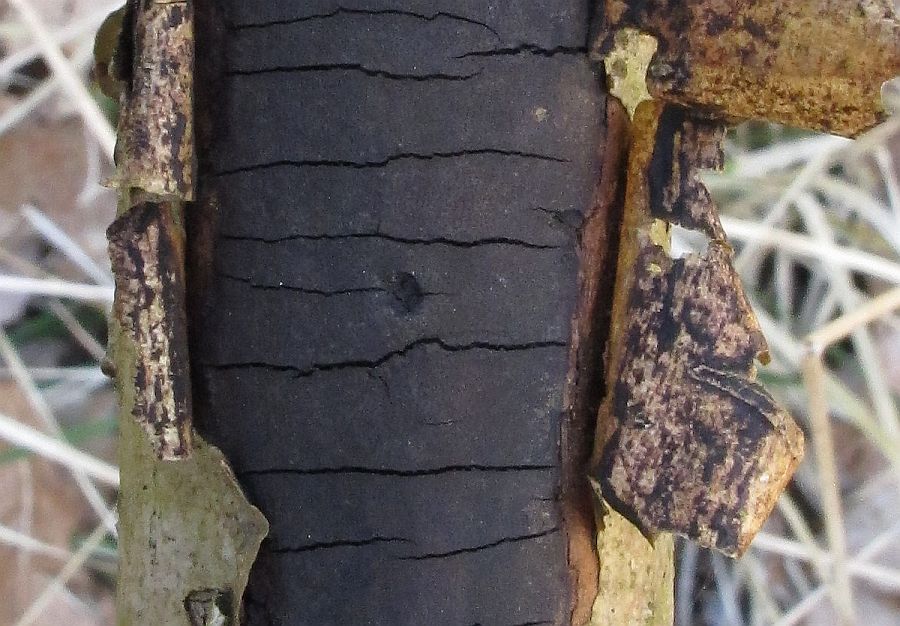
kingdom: Fungi
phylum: Ascomycota
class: Sordariomycetes
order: Xylariales
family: Diatrypaceae
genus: Diatrype
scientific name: Diatrype stigma
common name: udbredt kulskorpe
